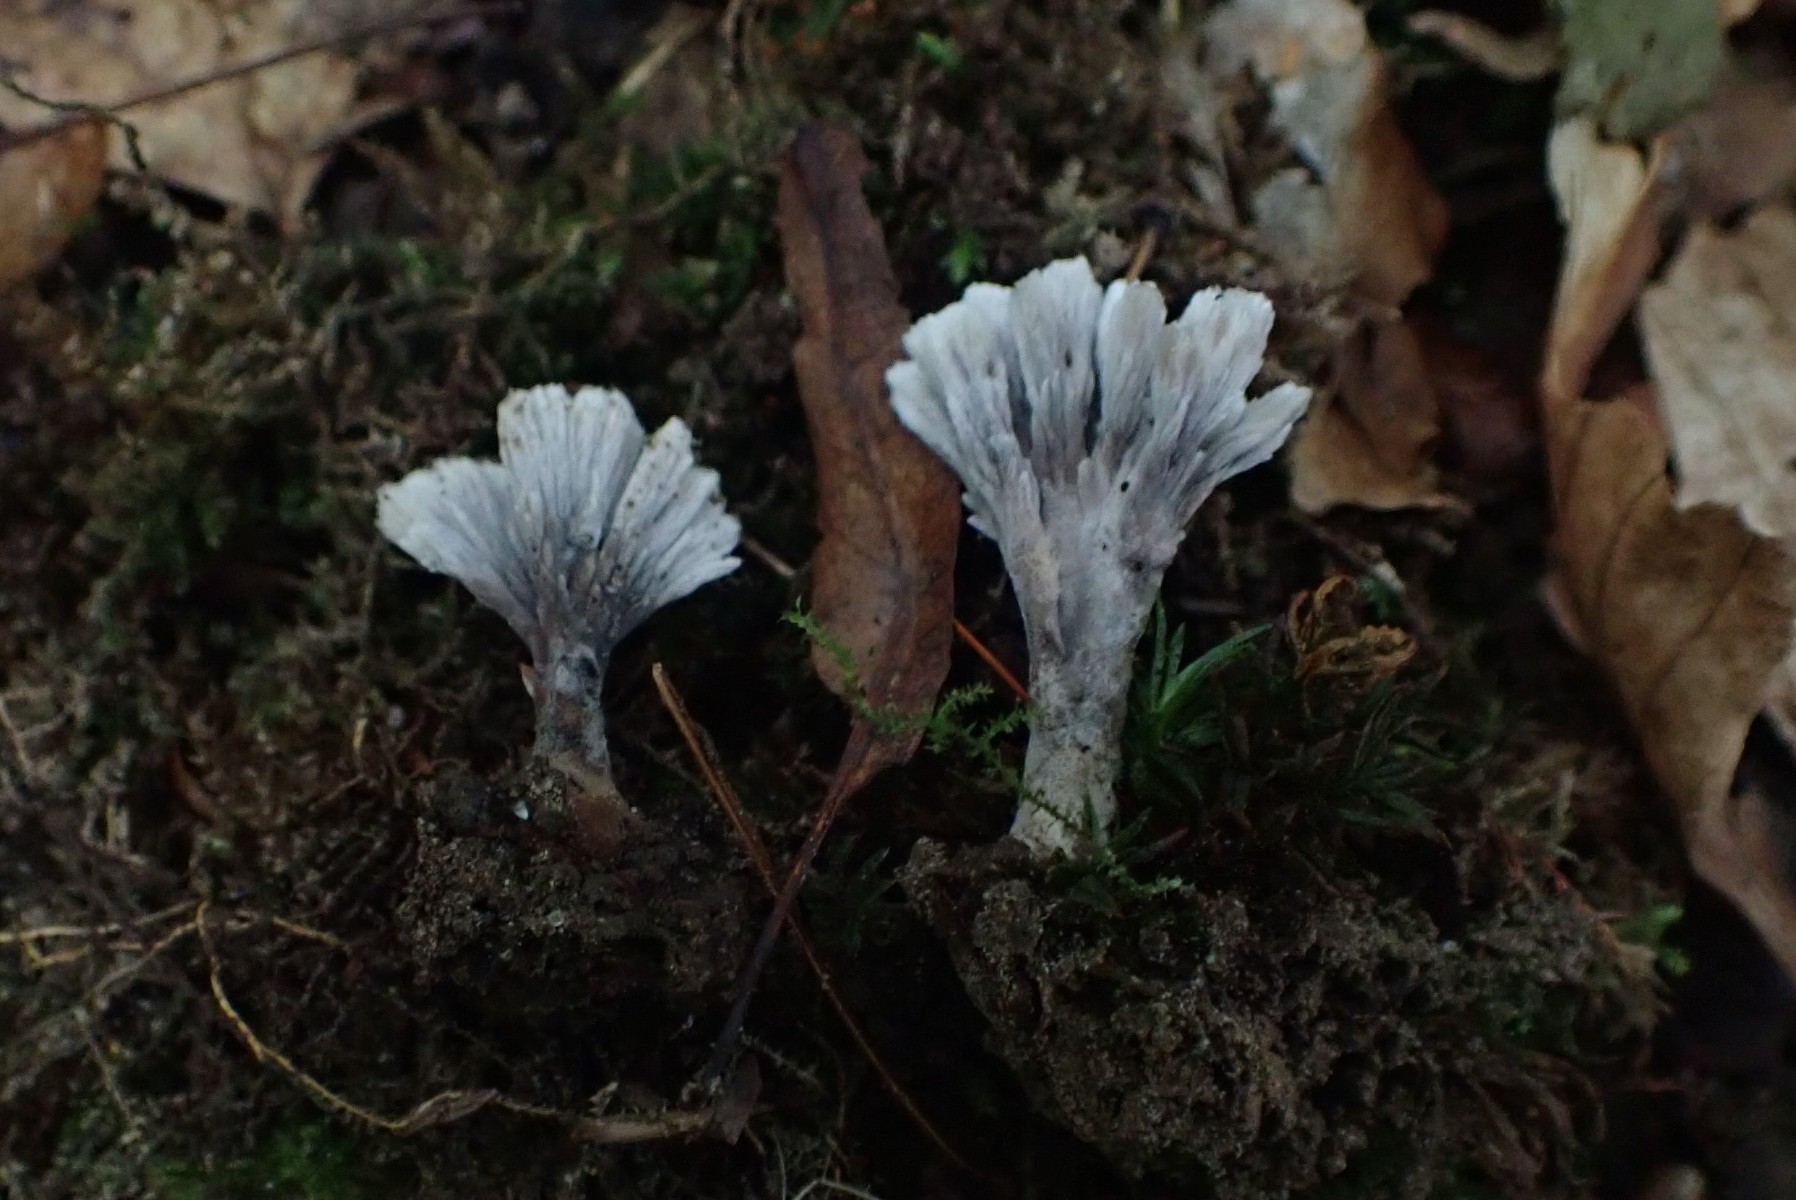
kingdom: Fungi
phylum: Basidiomycota
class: Agaricomycetes
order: Thelephorales
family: Thelephoraceae
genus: Thelephora
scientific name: Thelephora anthocephala
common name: busk-frynsesvamp
